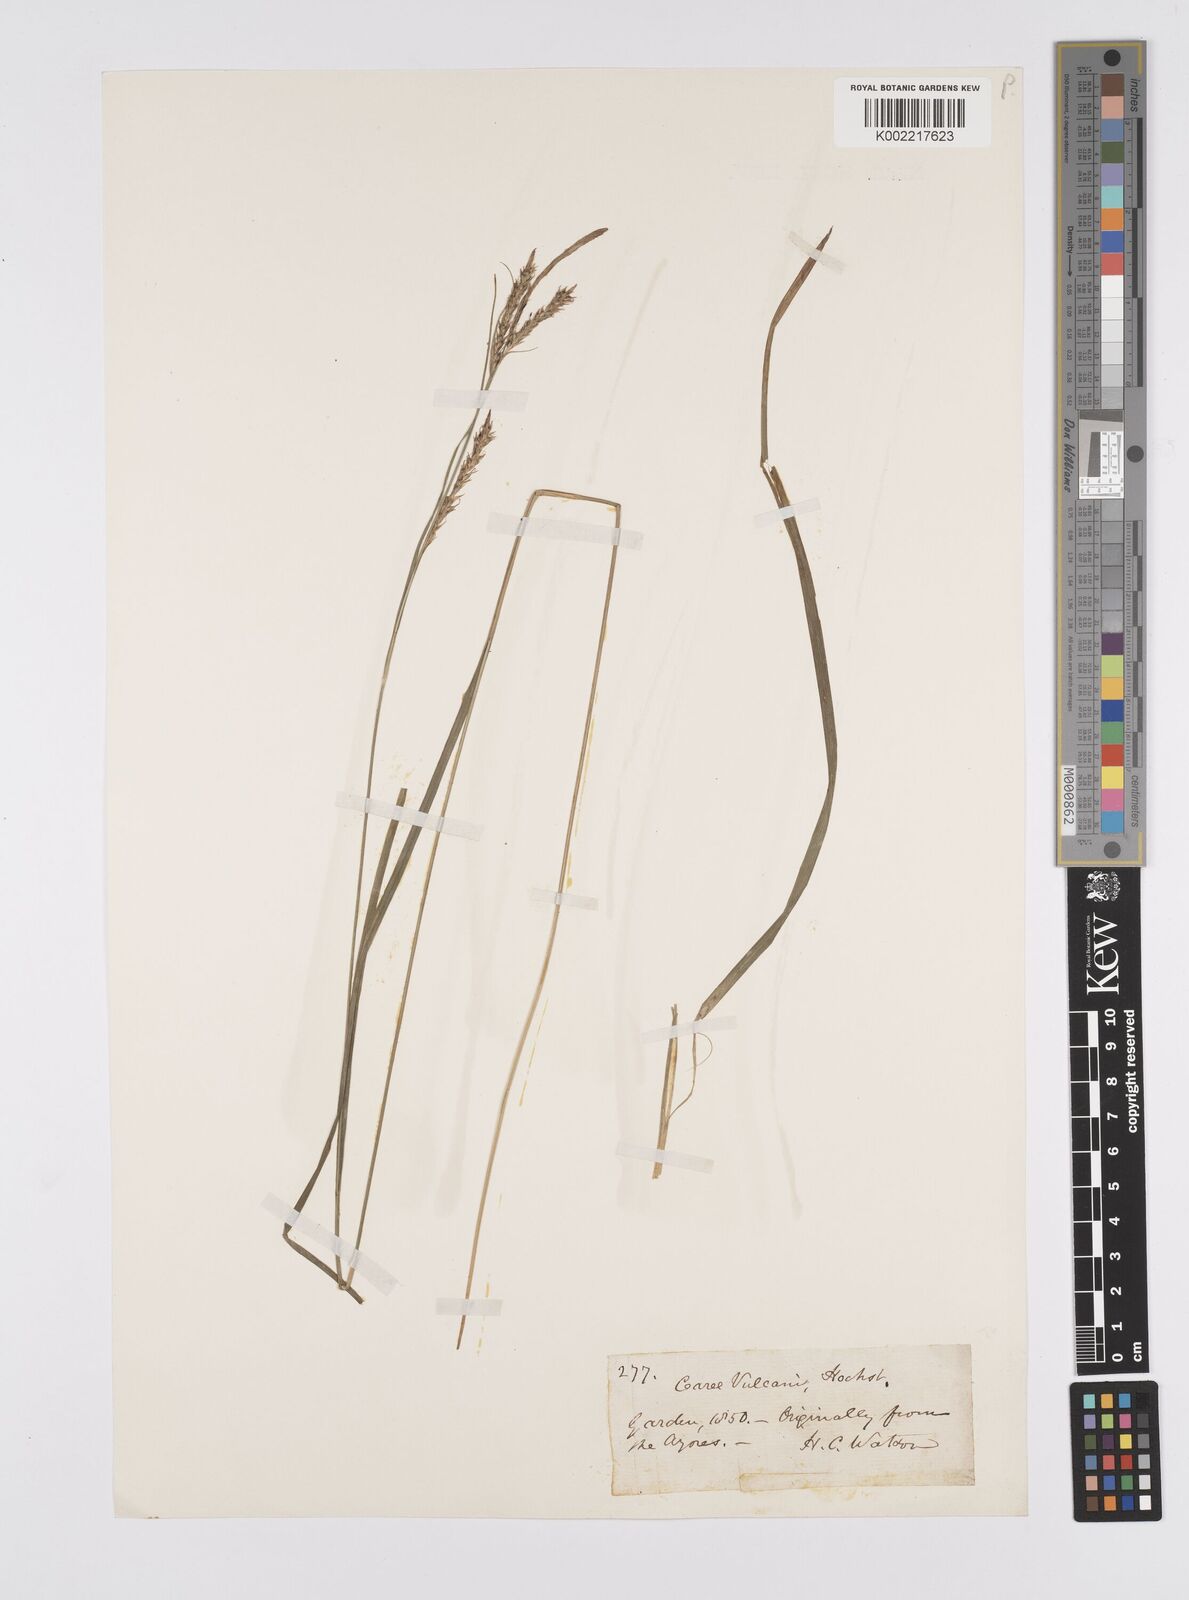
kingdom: Plantae
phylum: Tracheophyta
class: Liliopsida
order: Poales
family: Cyperaceae
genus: Carex
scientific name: Carex vulcani
